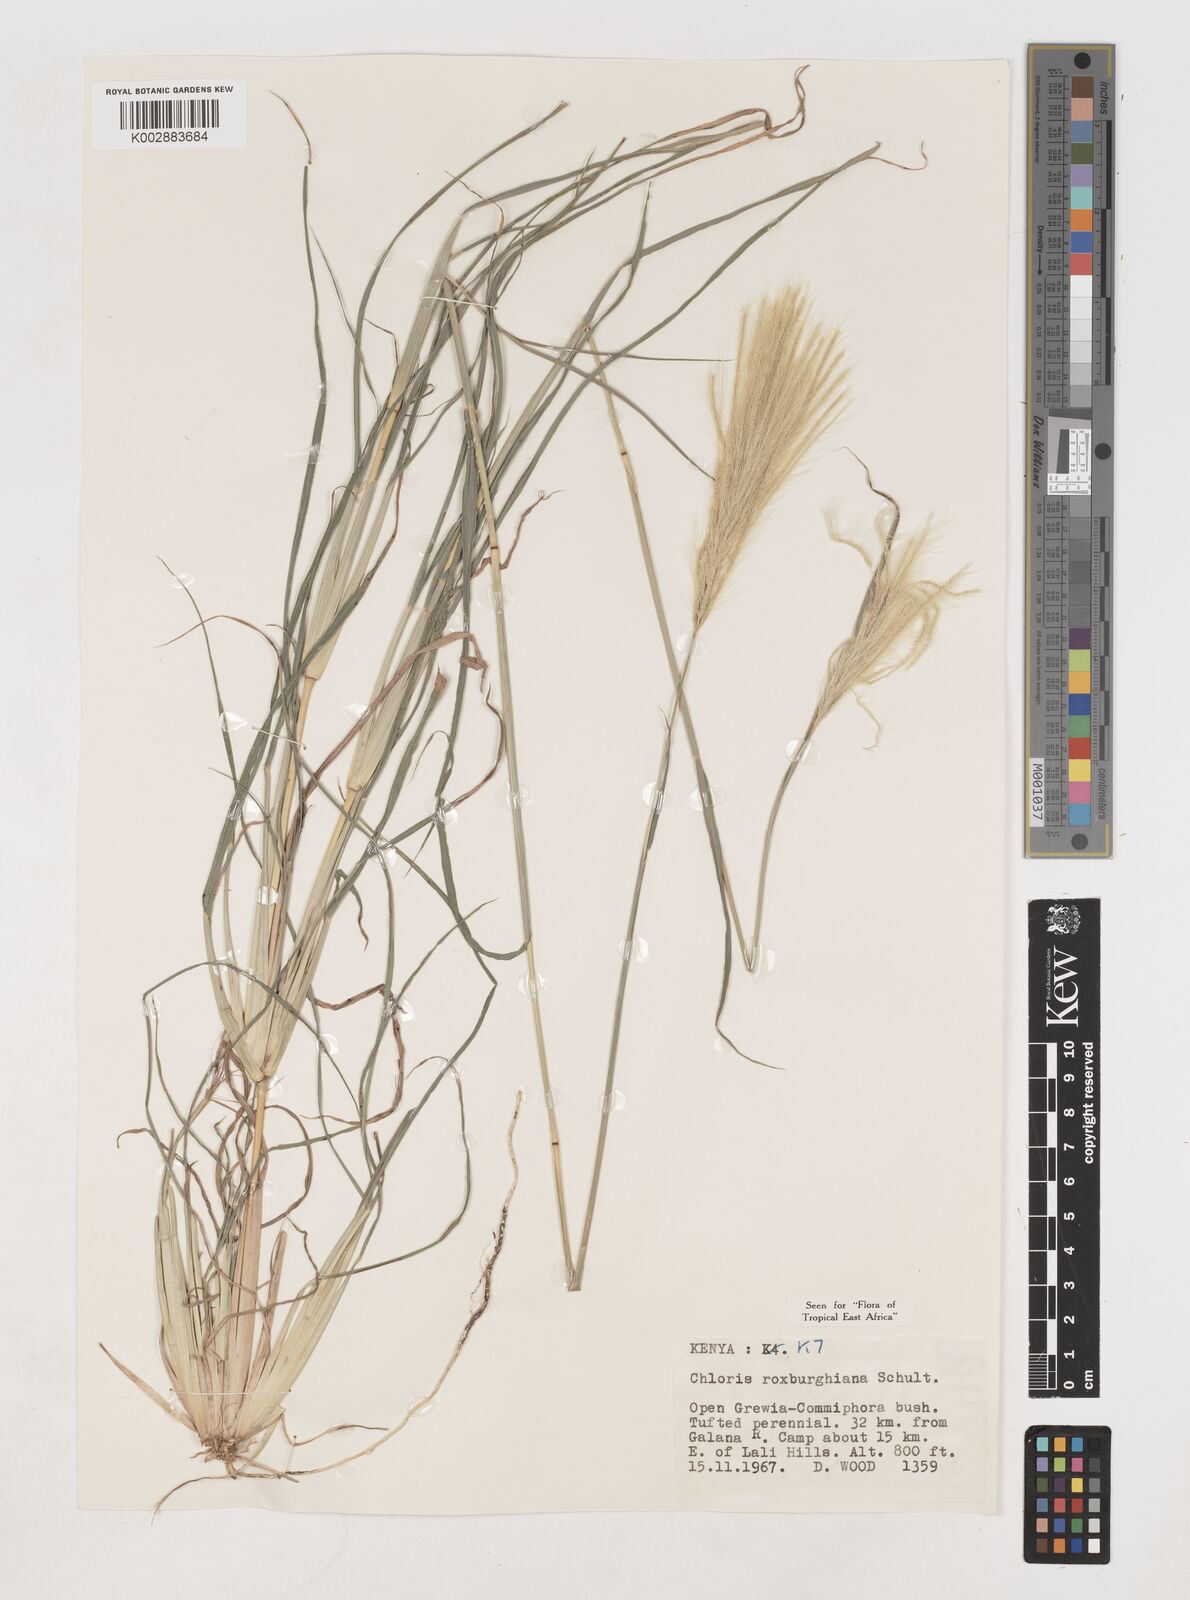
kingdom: Plantae
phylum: Tracheophyta
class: Liliopsida
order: Poales
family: Poaceae
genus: Tetrapogon
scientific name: Tetrapogon roxburghiana
